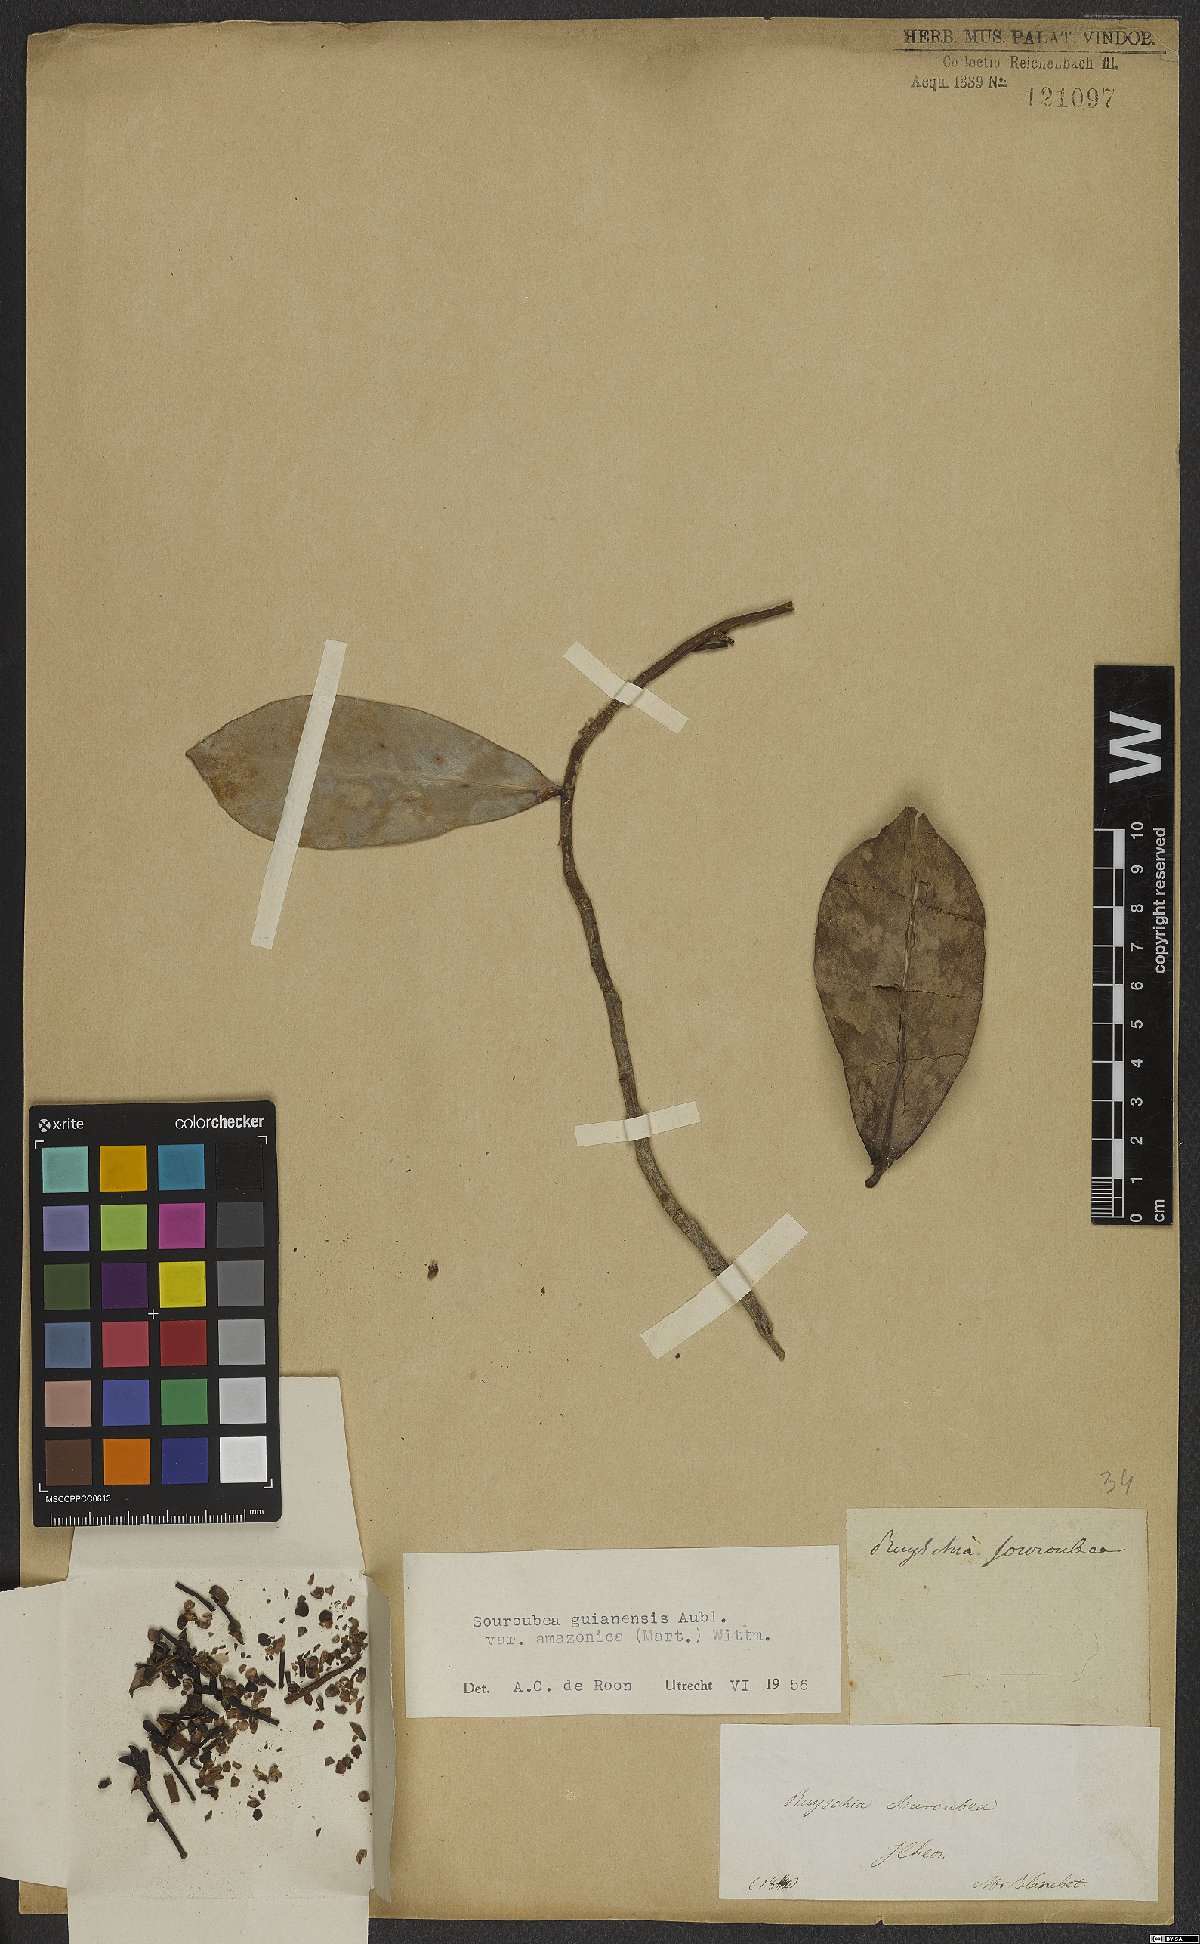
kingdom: Plantae
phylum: Tracheophyta
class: Magnoliopsida
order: Ericales
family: Marcgraviaceae
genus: Souroubea
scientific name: Souroubea guianensis
